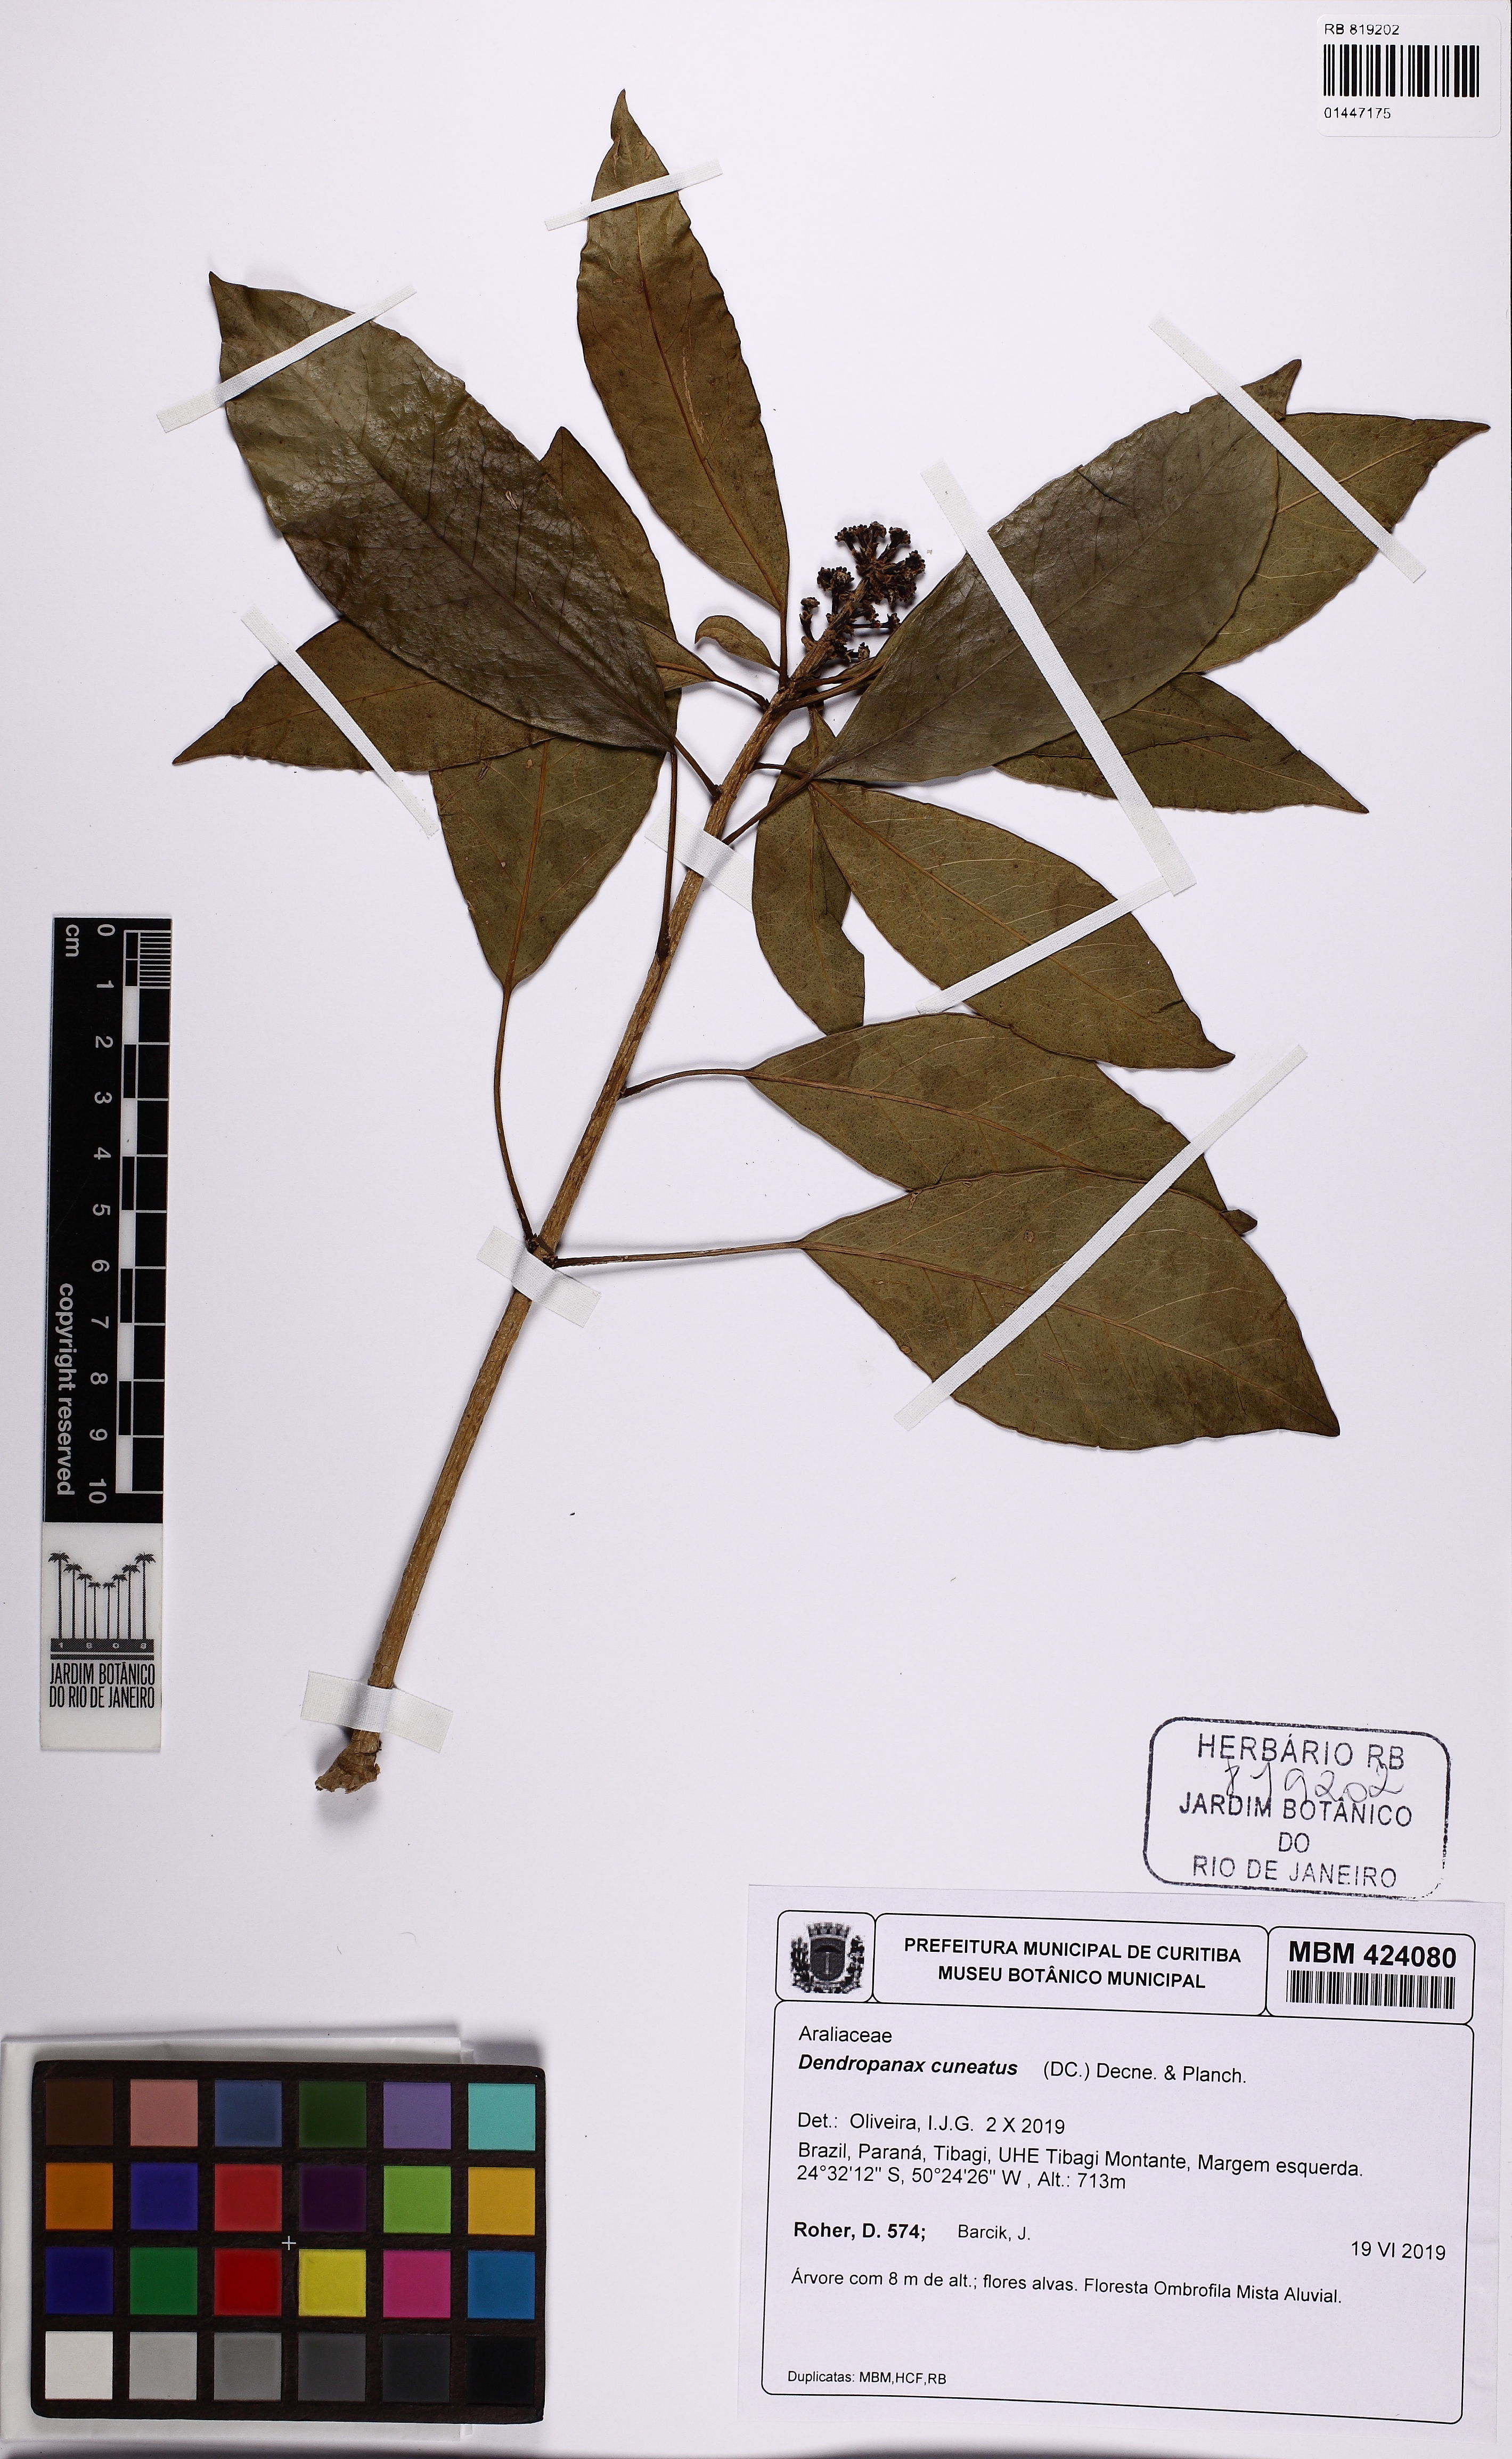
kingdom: Plantae
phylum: Tracheophyta
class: Magnoliopsida
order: Apiales
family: Araliaceae
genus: Dendropanax
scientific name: Dendropanax cuneatus
